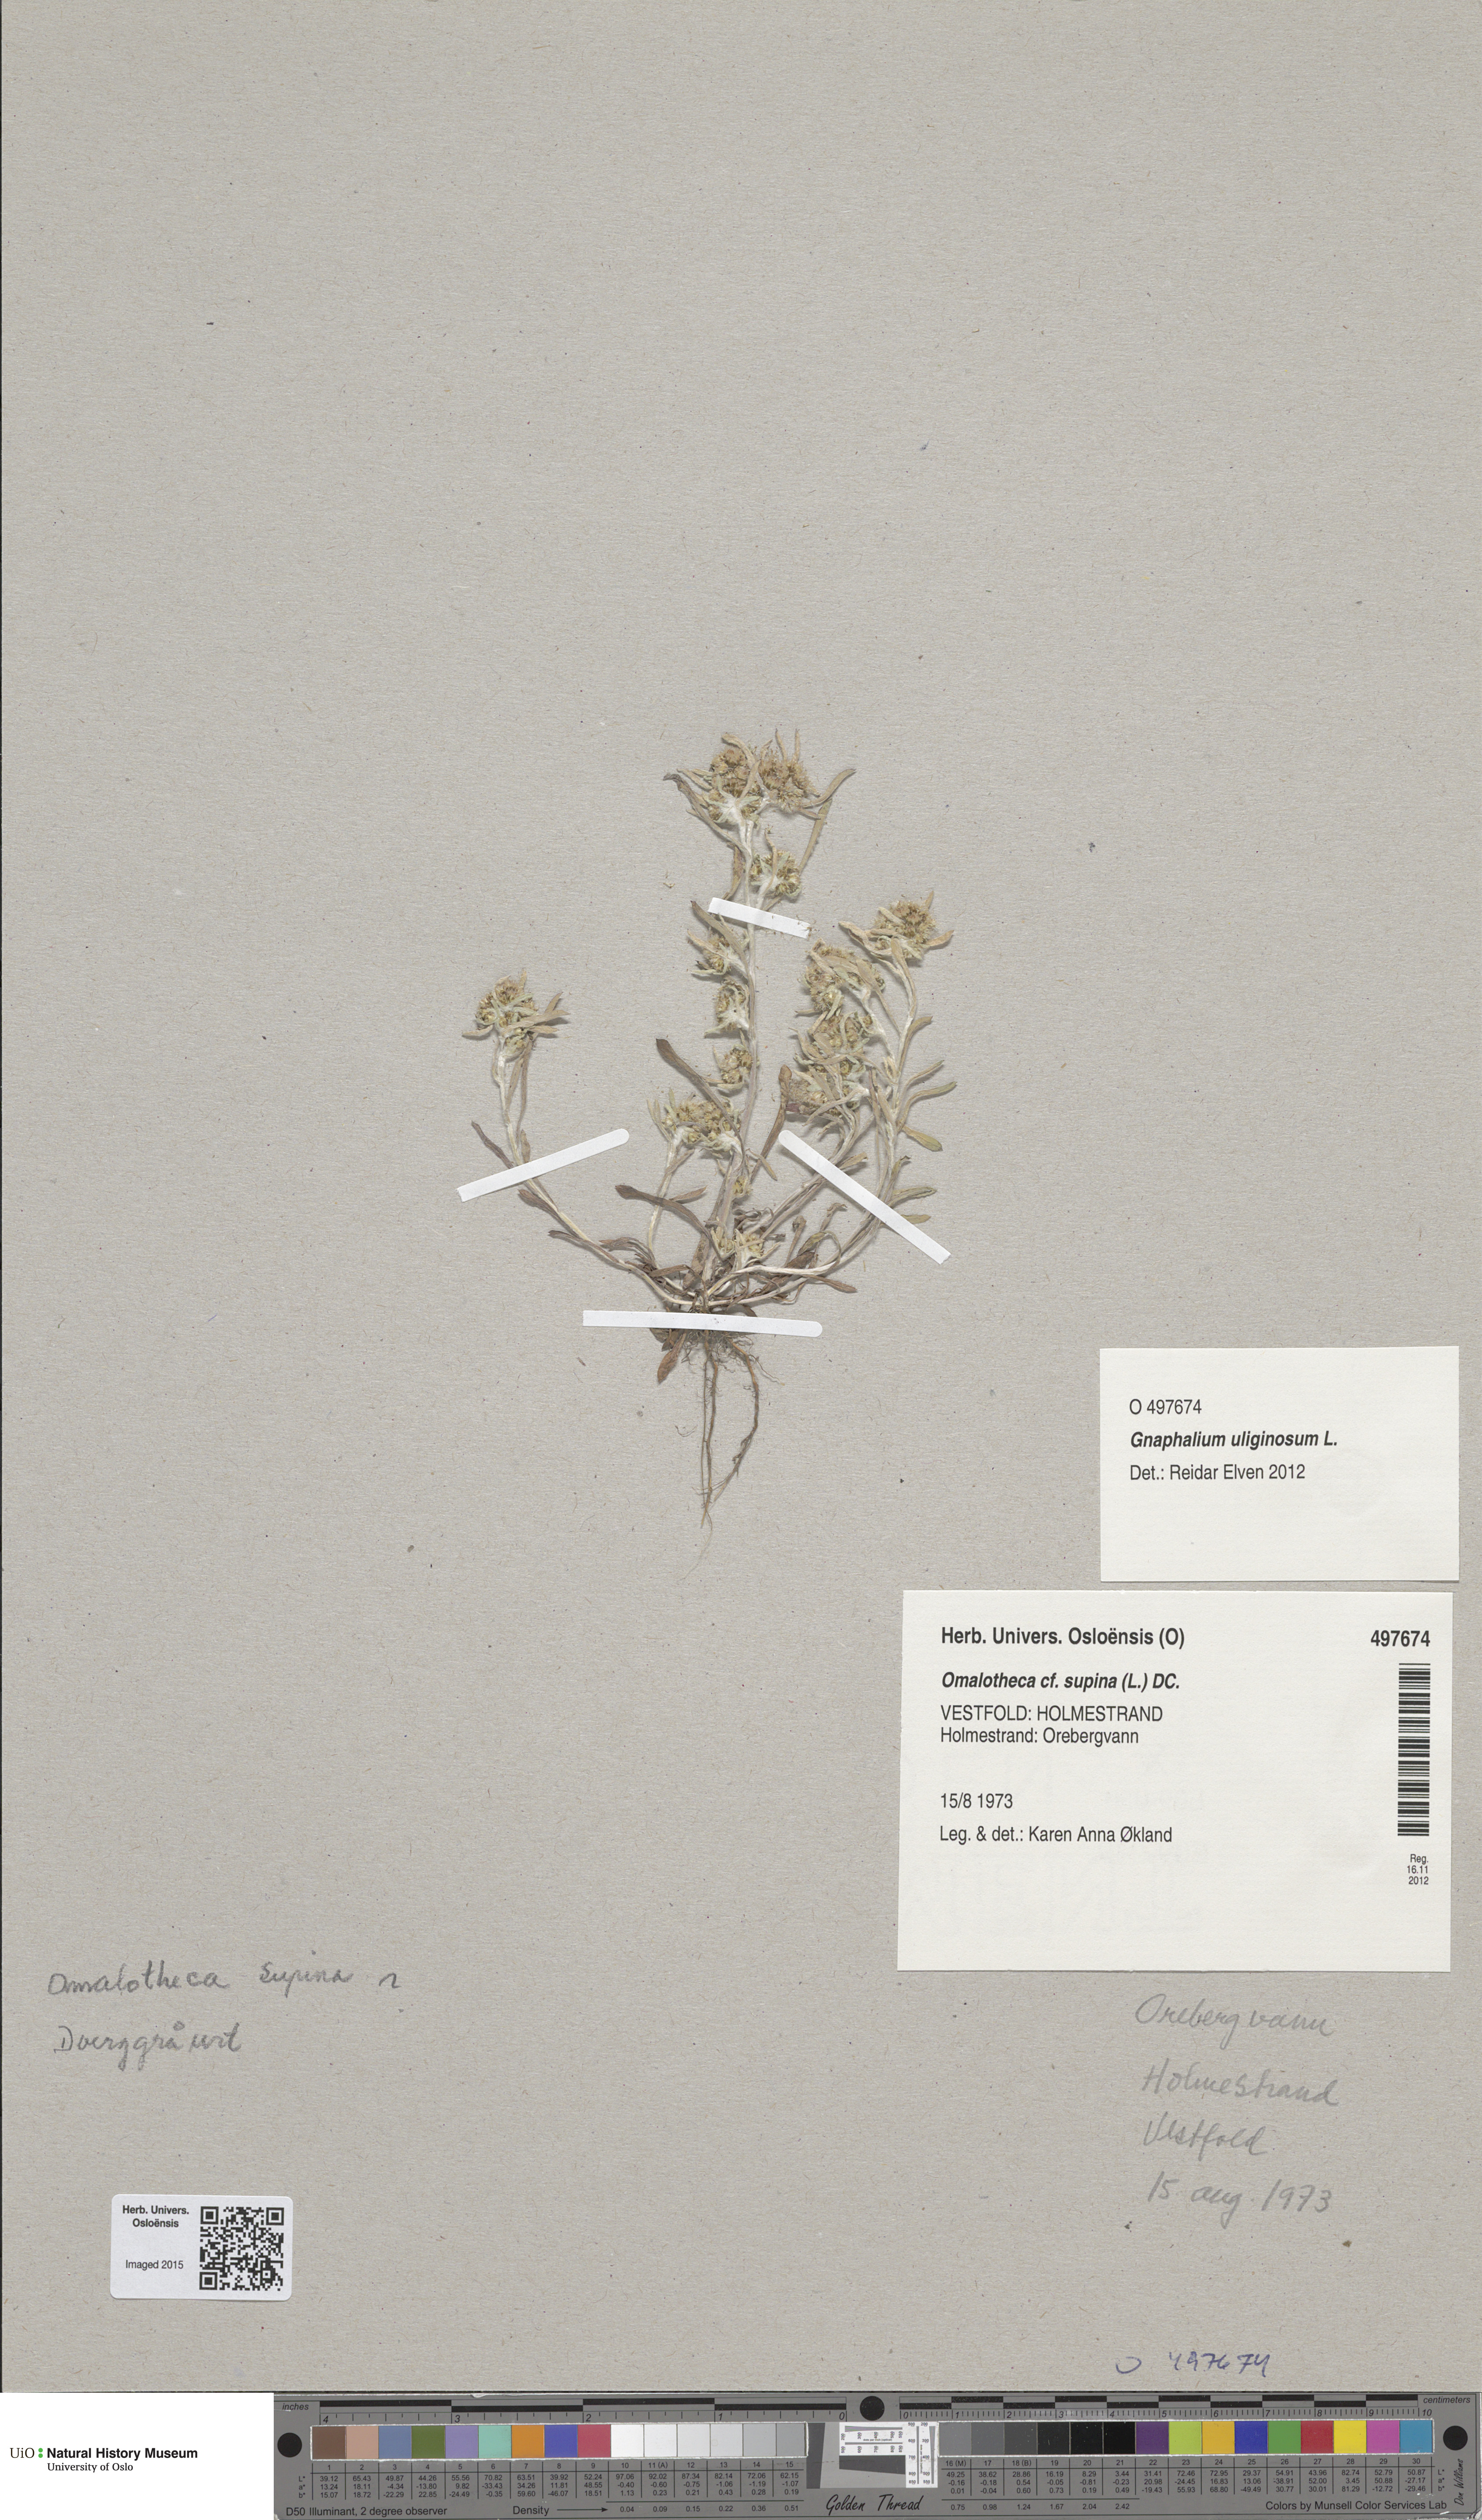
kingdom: Plantae
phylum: Tracheophyta
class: Magnoliopsida
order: Asterales
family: Asteraceae
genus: Omalotheca
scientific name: Omalotheca supina
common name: Alpine arctic-cudweed
